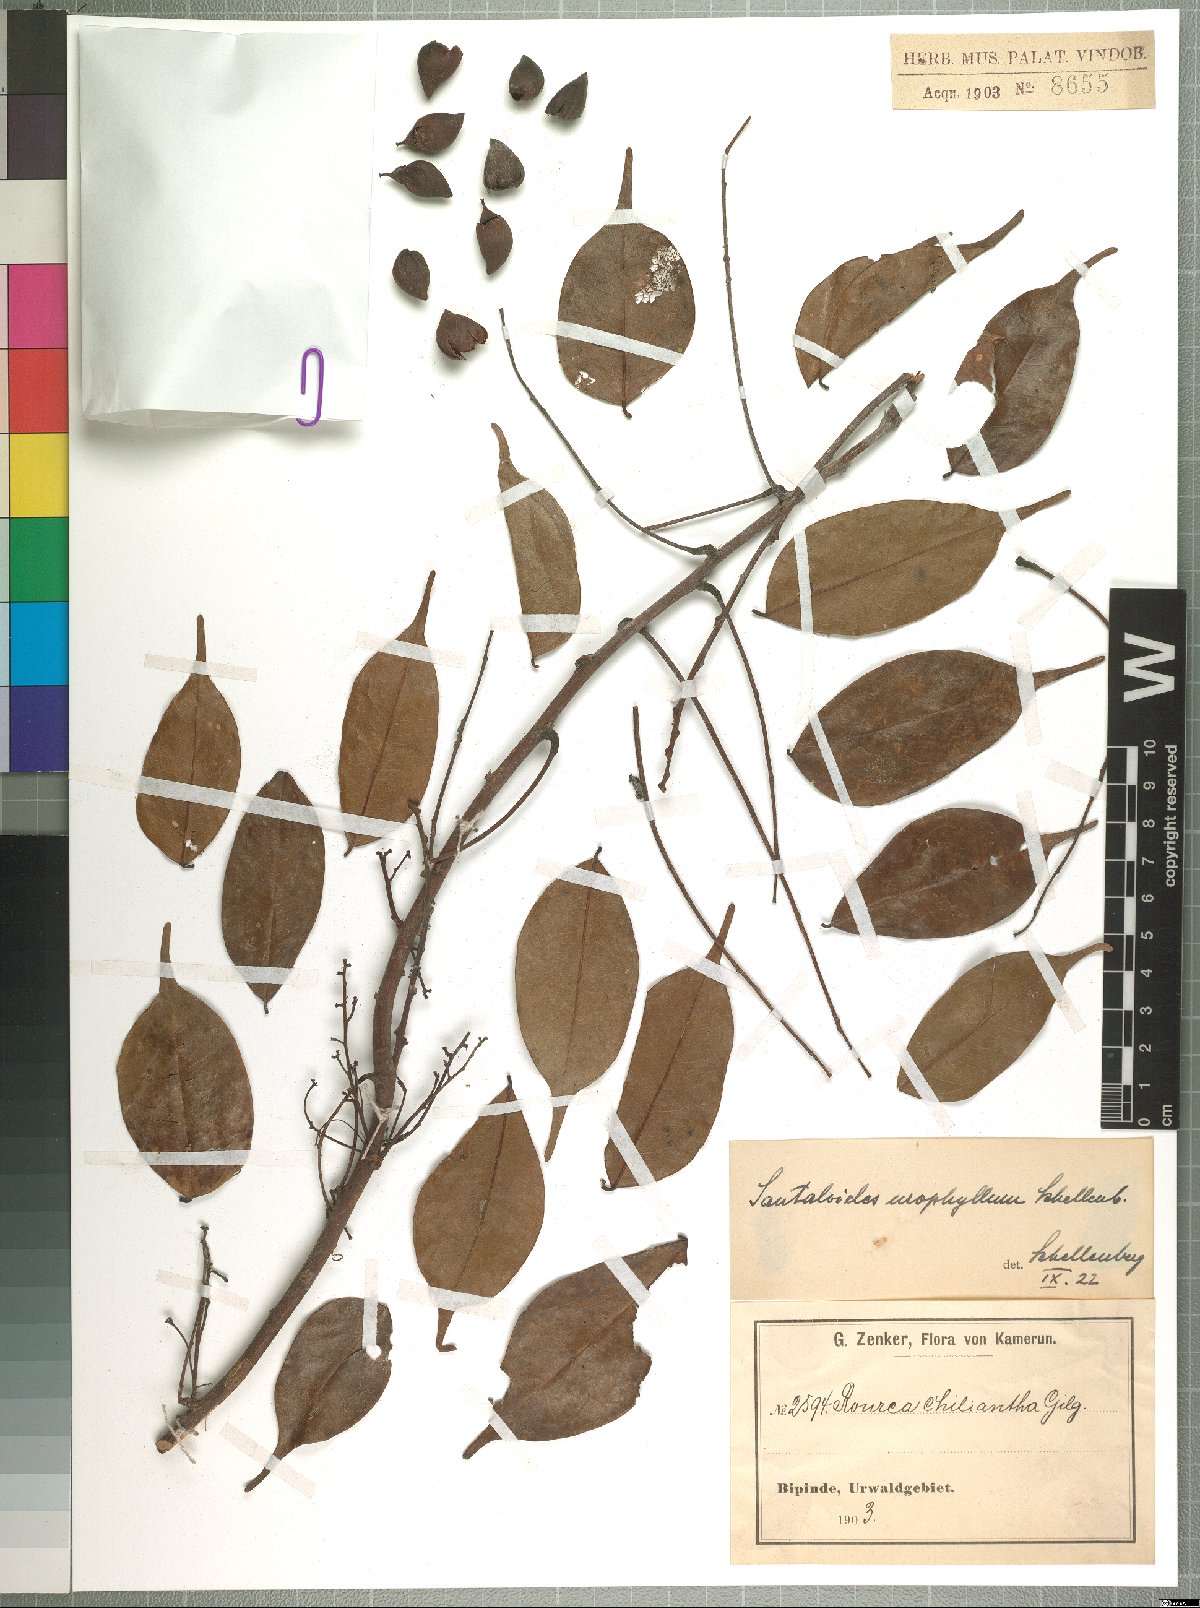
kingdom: Plantae
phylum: Tracheophyta
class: Magnoliopsida
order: Oxalidales
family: Connaraceae
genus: Rourea
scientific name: Rourea minor
